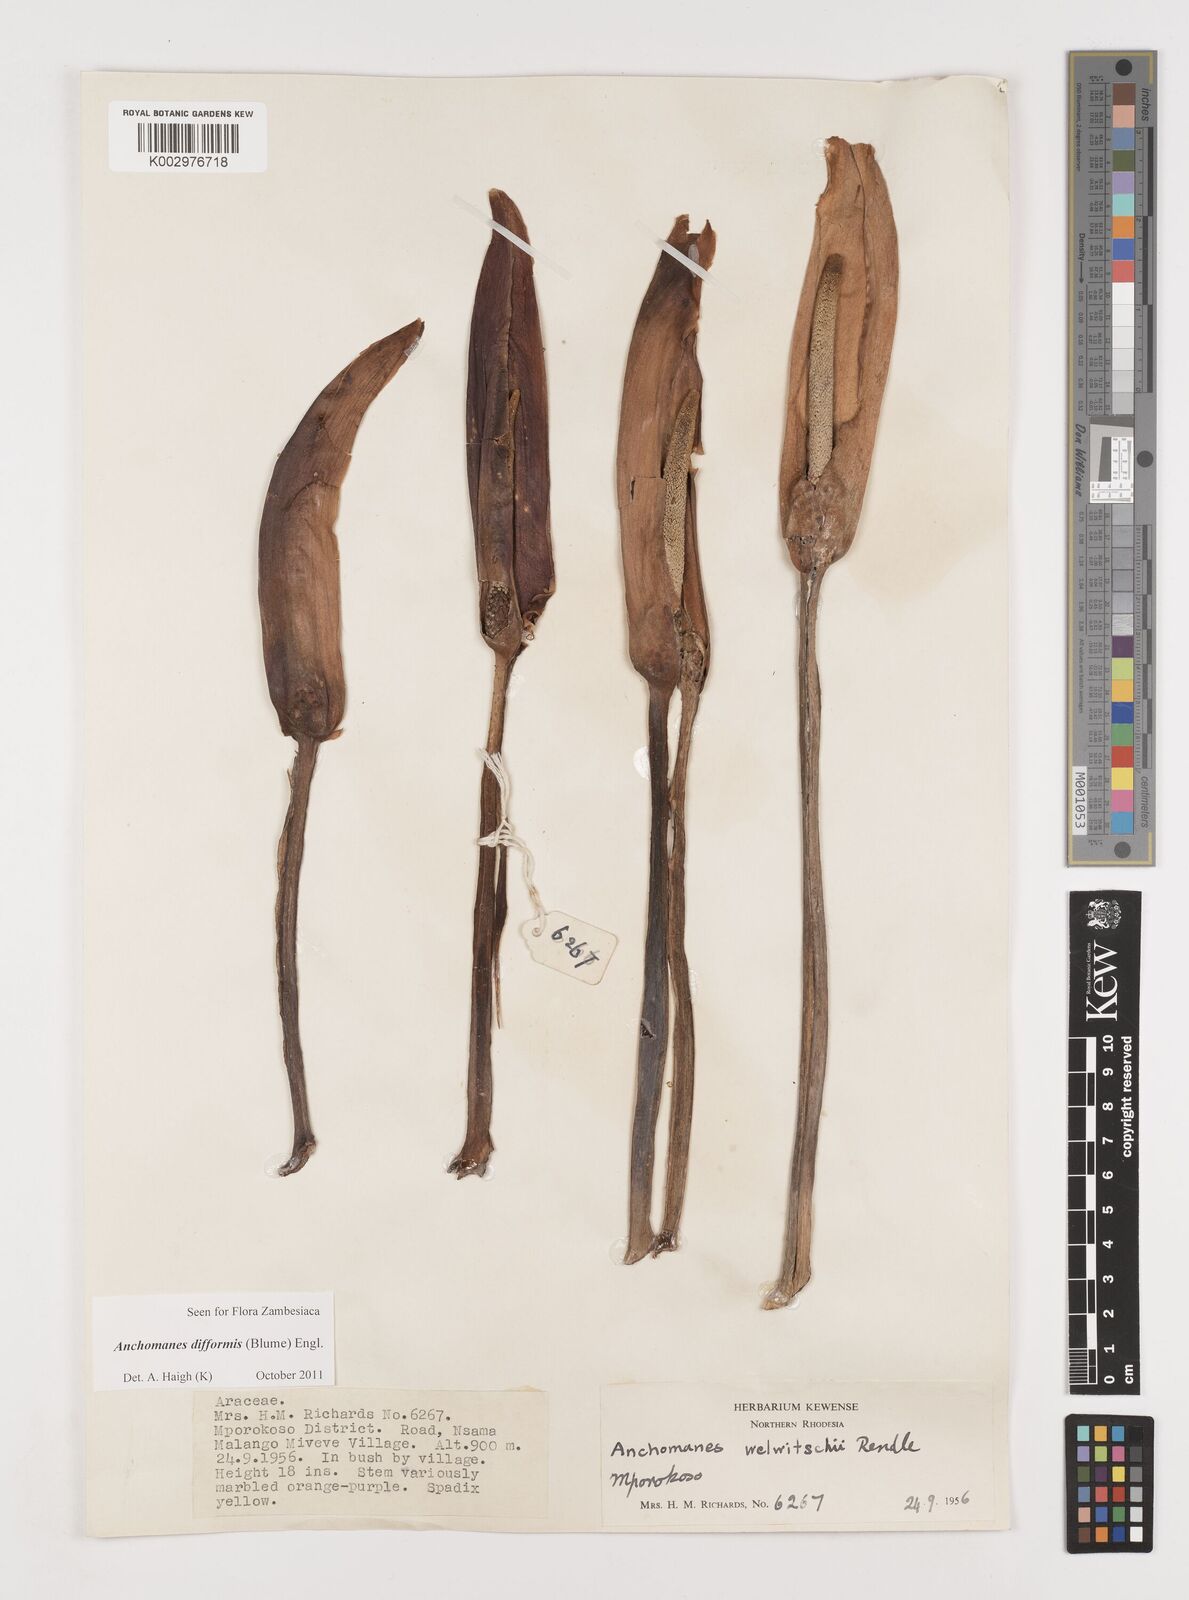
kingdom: Plantae
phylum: Tracheophyta
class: Liliopsida
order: Alismatales
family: Araceae
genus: Anchomanes
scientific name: Anchomanes difformis
